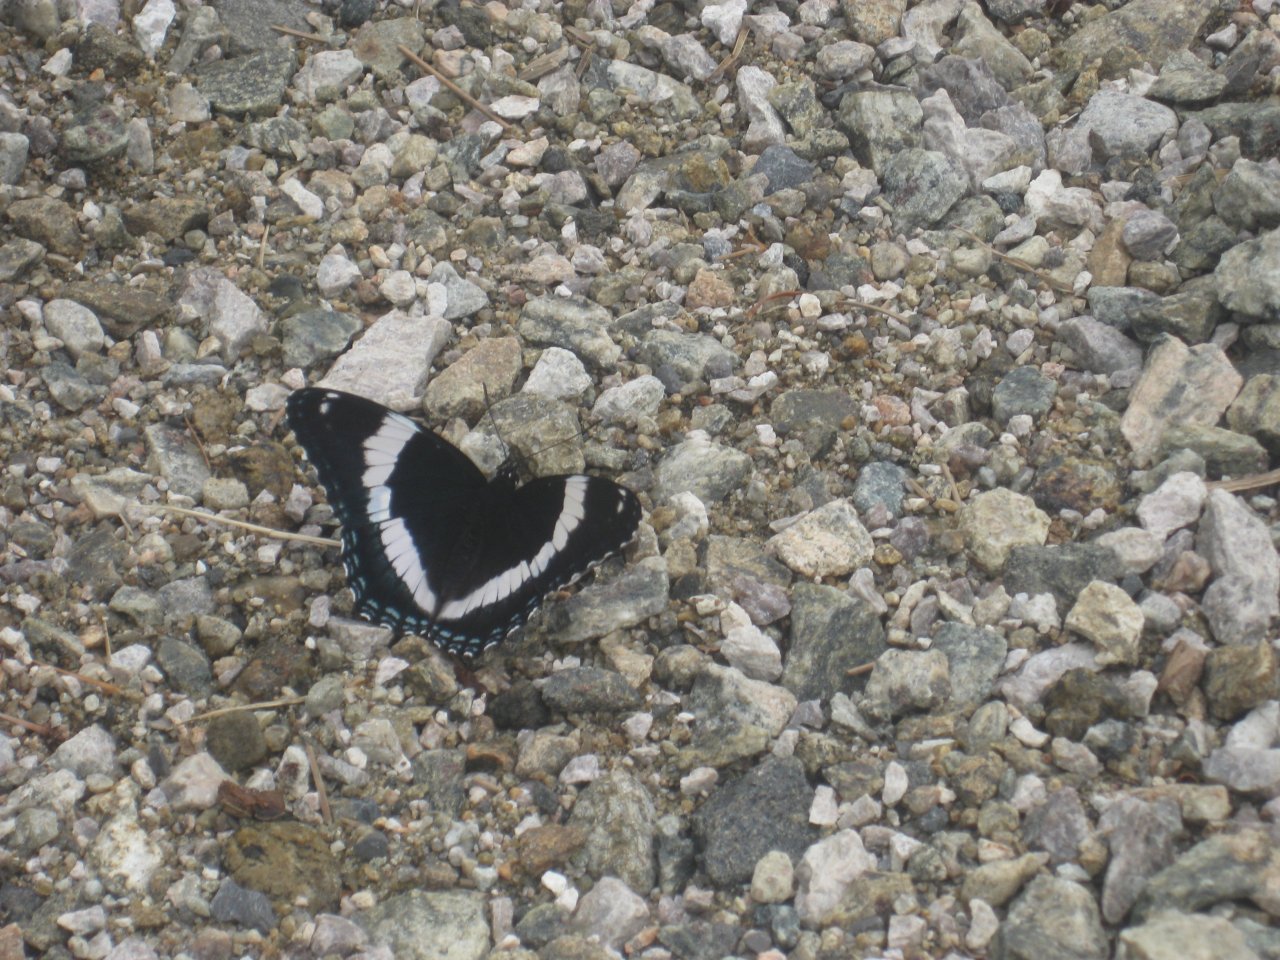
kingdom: Animalia
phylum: Arthropoda
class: Insecta
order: Lepidoptera
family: Nymphalidae
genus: Limenitis
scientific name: Limenitis arthemis
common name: Red-spotted Admiral
